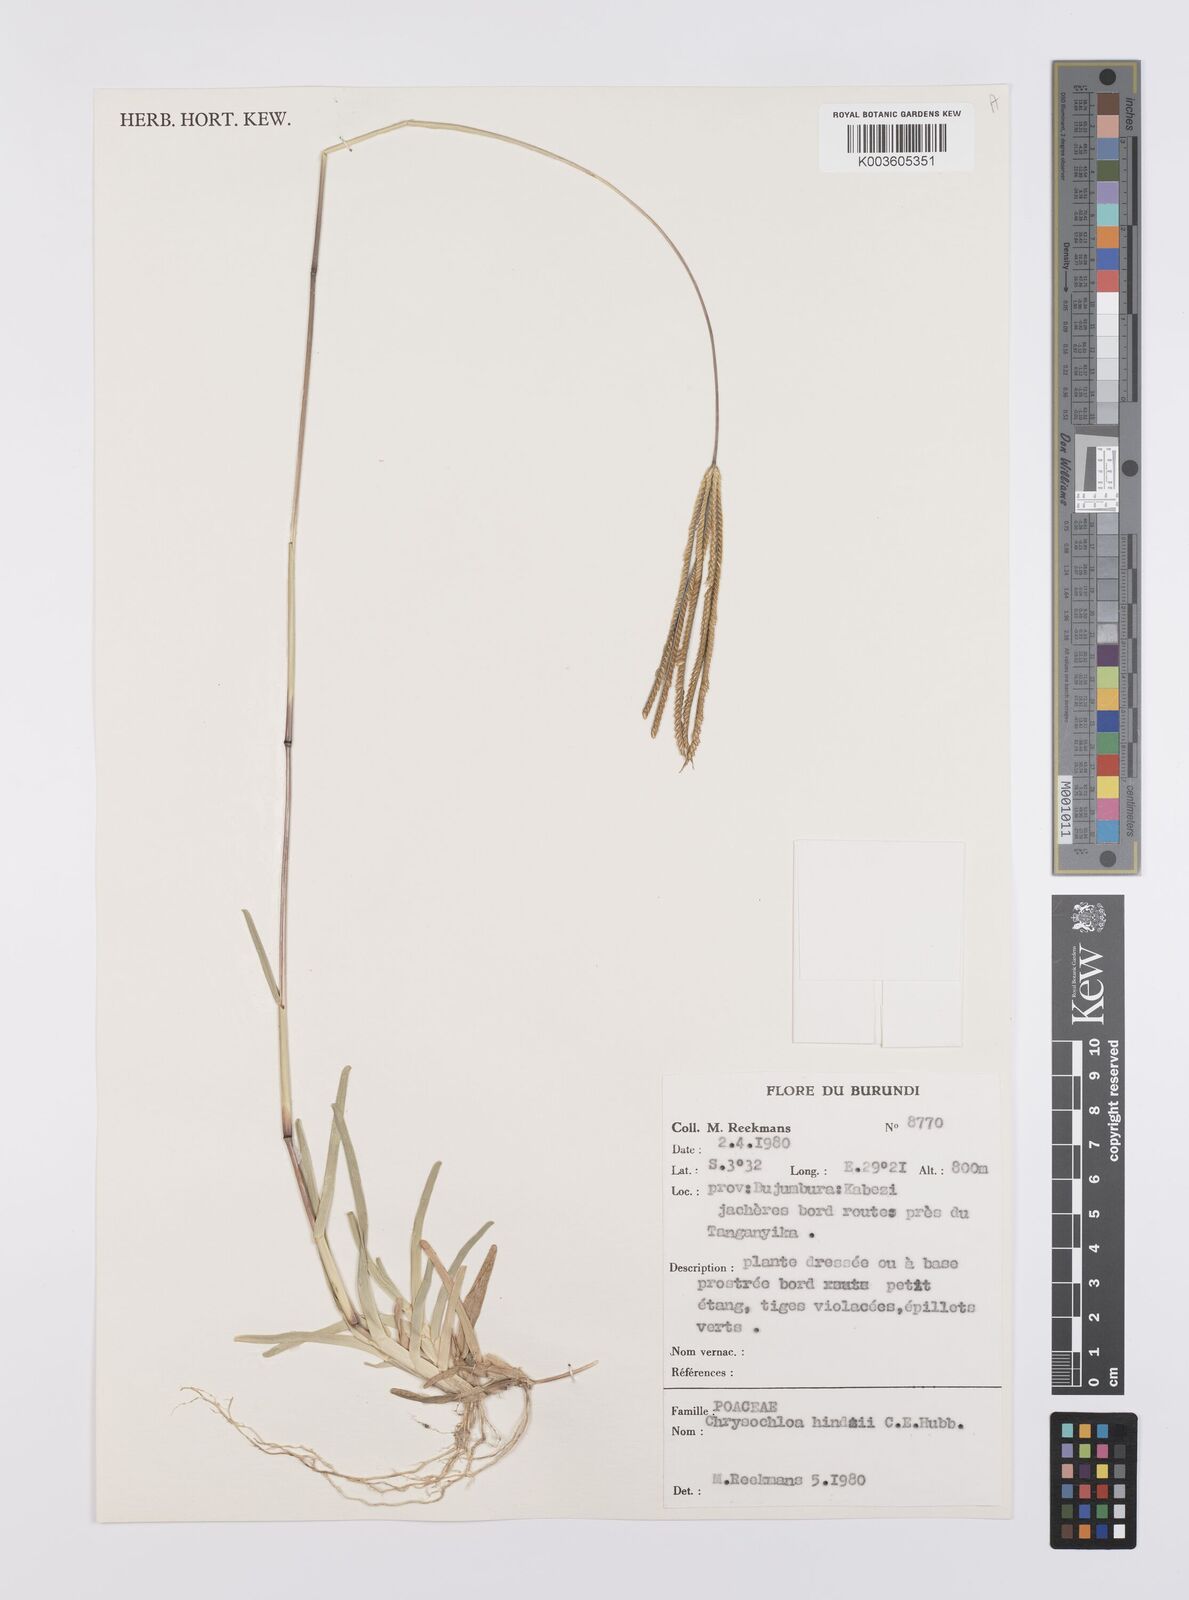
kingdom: Plantae
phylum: Tracheophyta
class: Liliopsida
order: Poales
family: Poaceae
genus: Chrysochloa
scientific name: Chrysochloa hindsii
